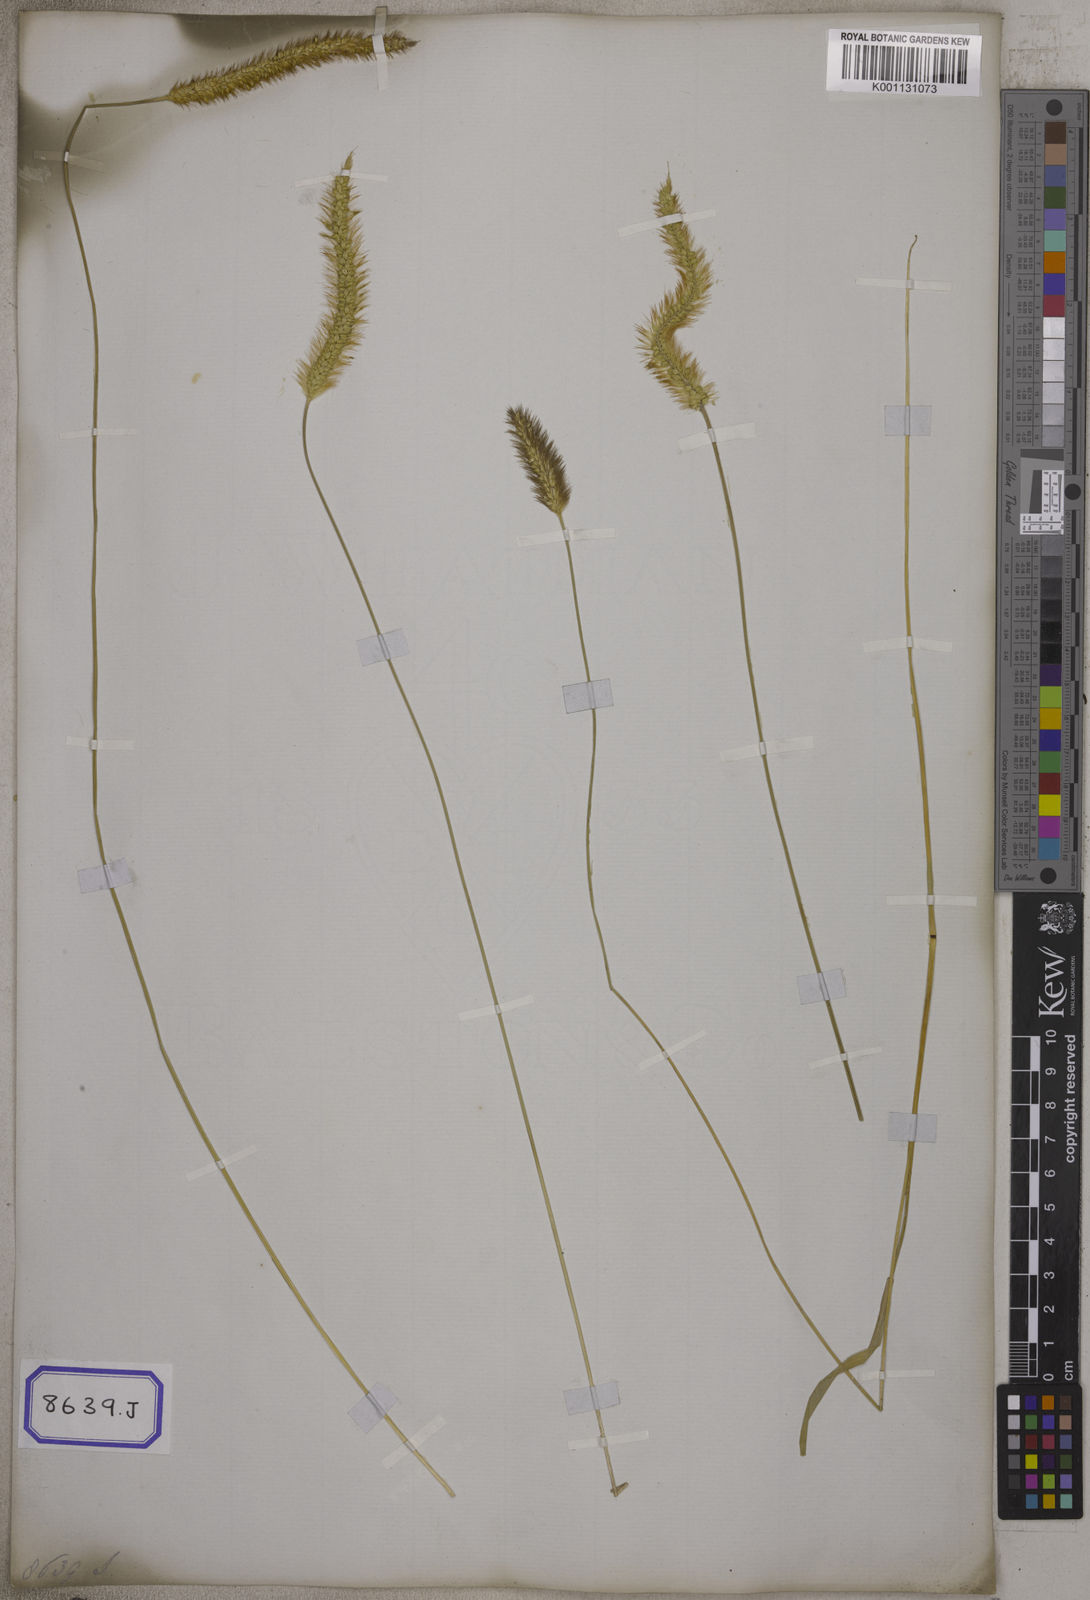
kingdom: Plantae
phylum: Tracheophyta
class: Liliopsida
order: Poales
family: Poaceae
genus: Cenchrus
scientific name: Cenchrus americanus
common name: Pearl millet
